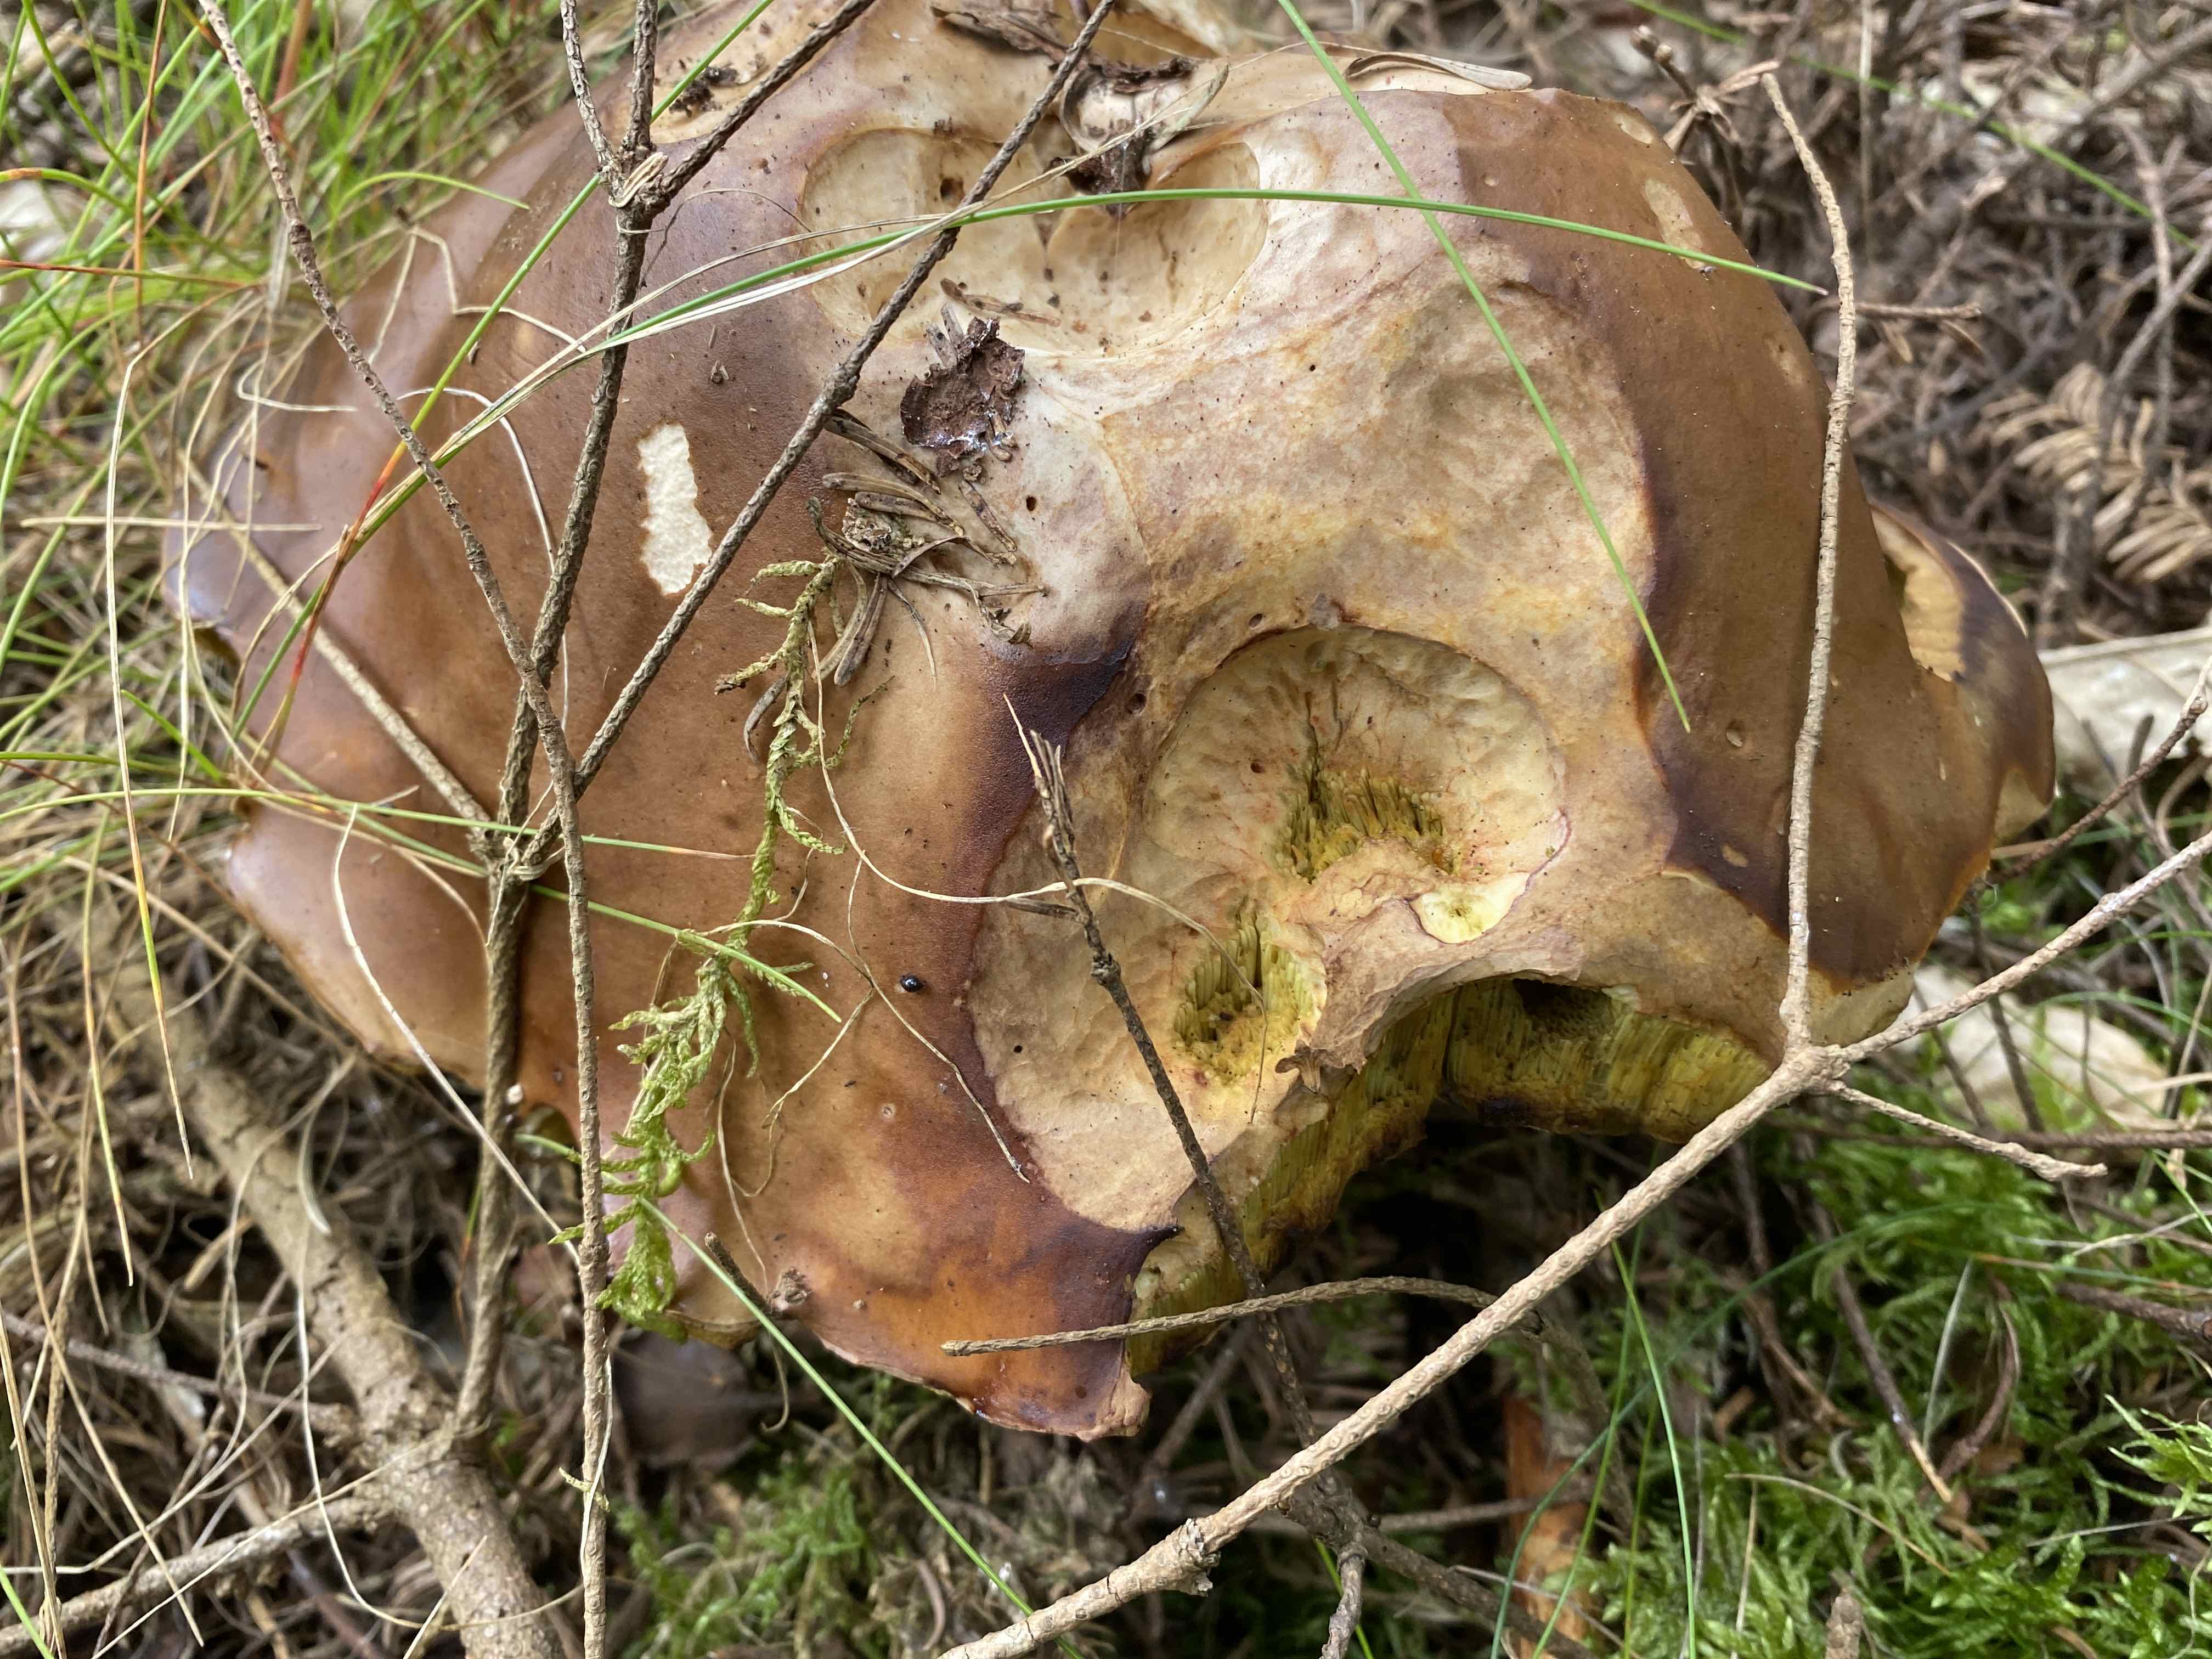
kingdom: Fungi
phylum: Basidiomycota
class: Agaricomycetes
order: Boletales
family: Boletaceae
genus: Boletus
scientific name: Boletus edulis
